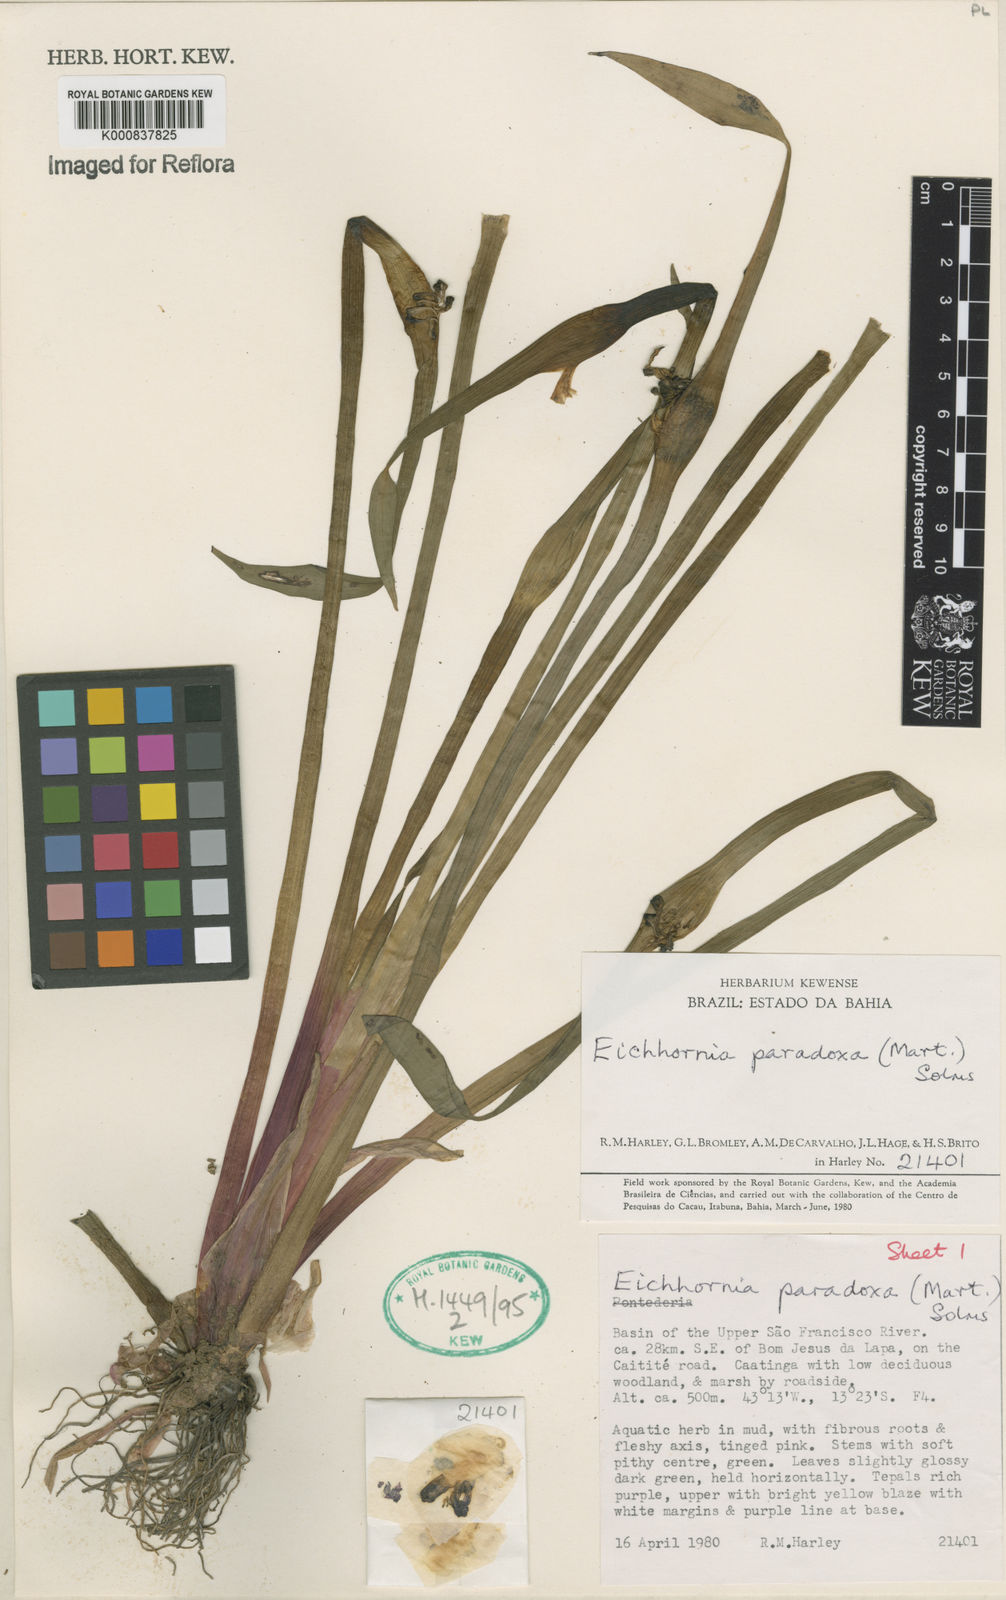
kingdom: Plantae
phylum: Tracheophyta
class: Liliopsida
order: Commelinales
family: Pontederiaceae
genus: Pontederia
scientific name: Pontederia
